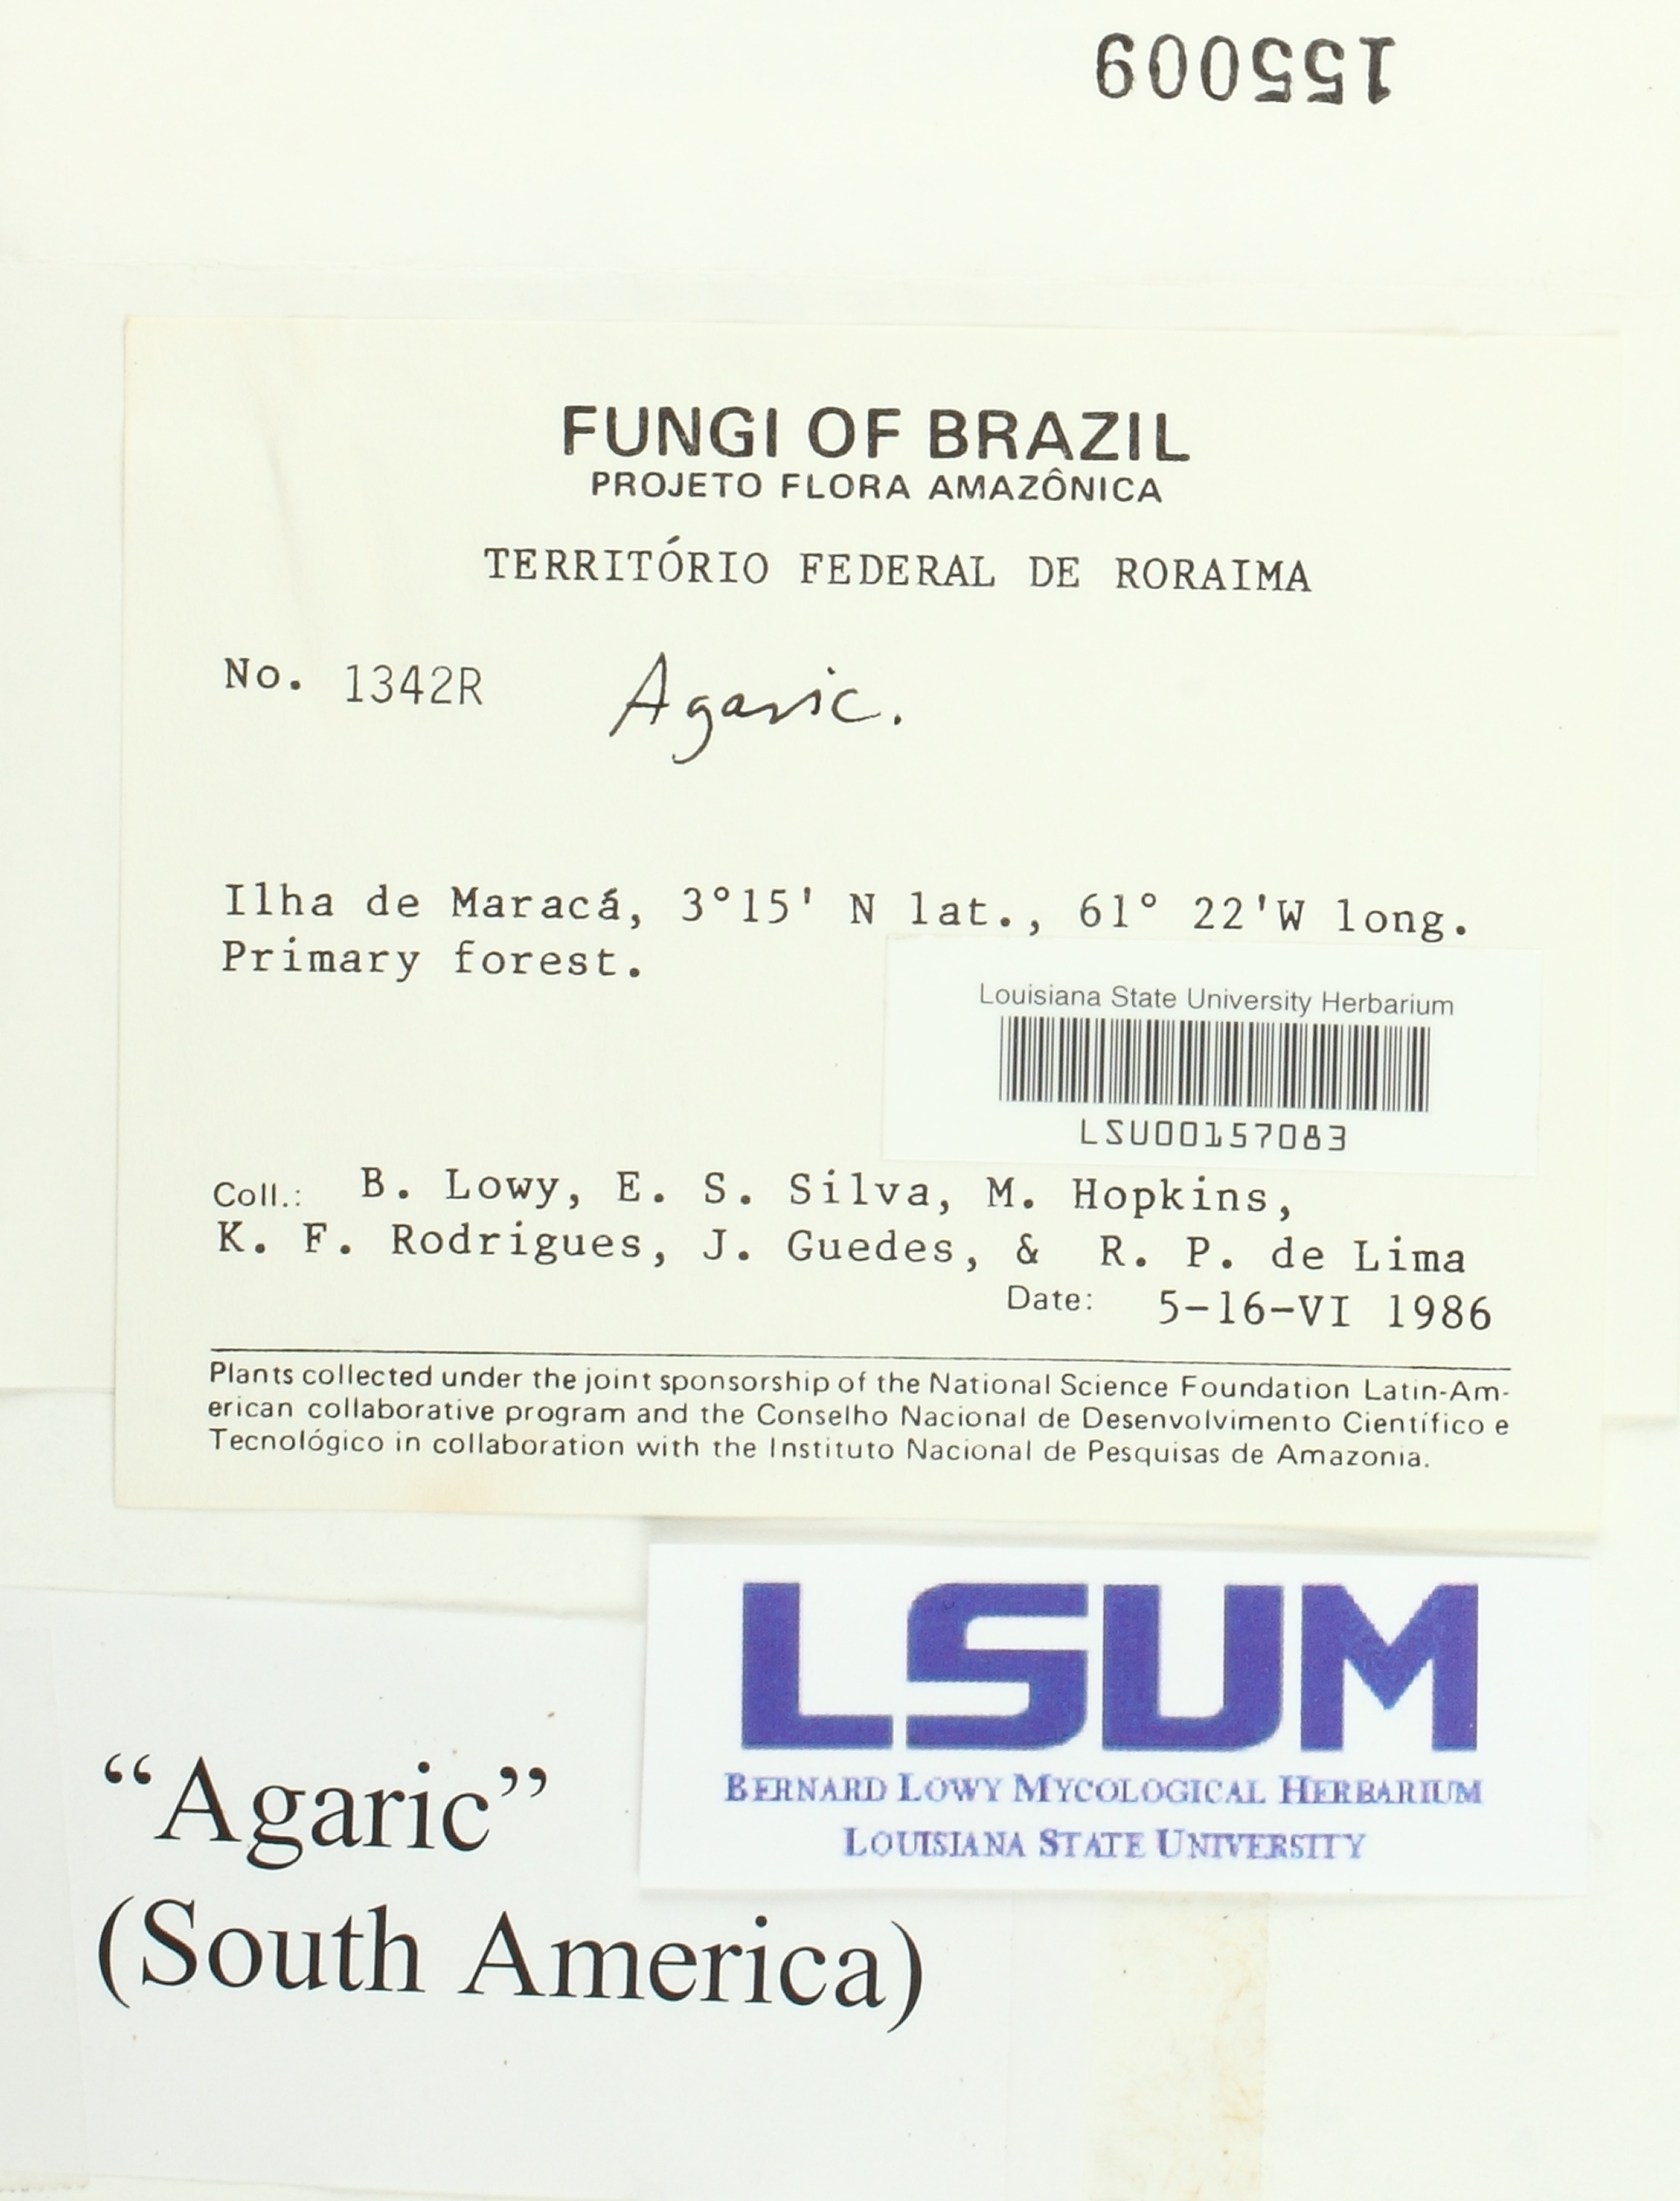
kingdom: Fungi
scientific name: Fungi
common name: Fungi
